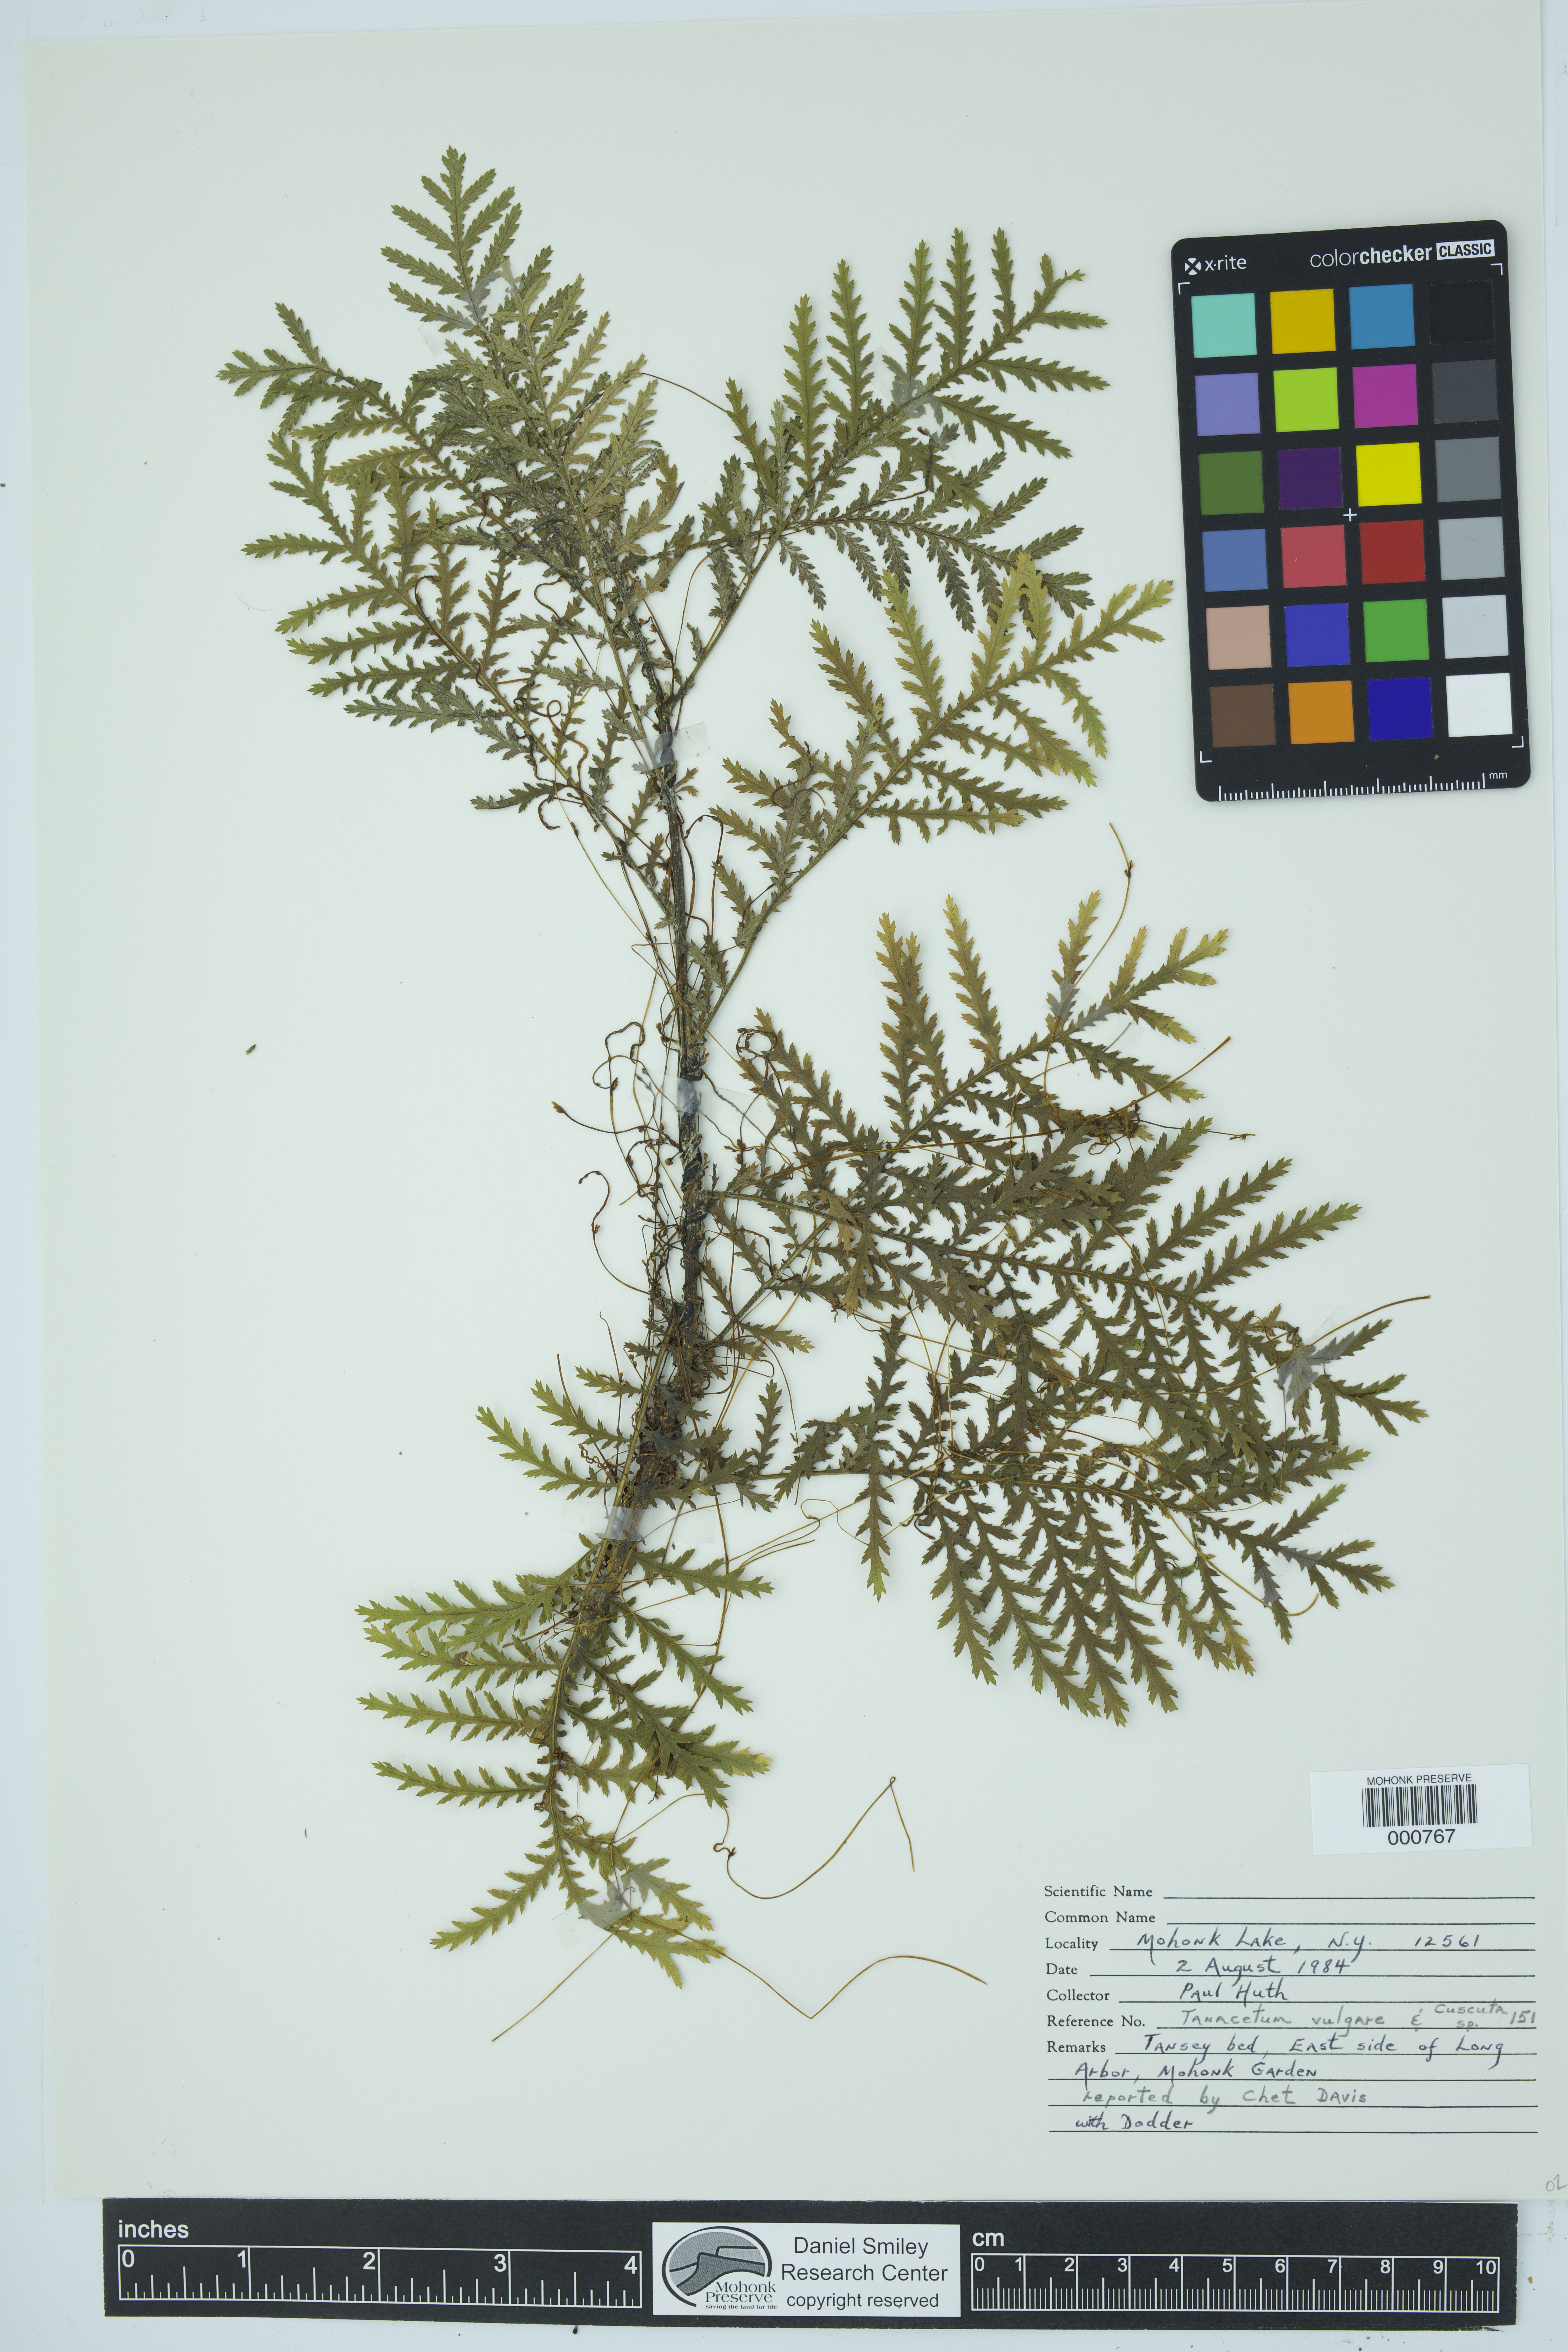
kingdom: Plantae
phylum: Tracheophyta
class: Magnoliopsida
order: Solanales
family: Convolvulaceae
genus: Cuscuta
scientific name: Cuscuta
